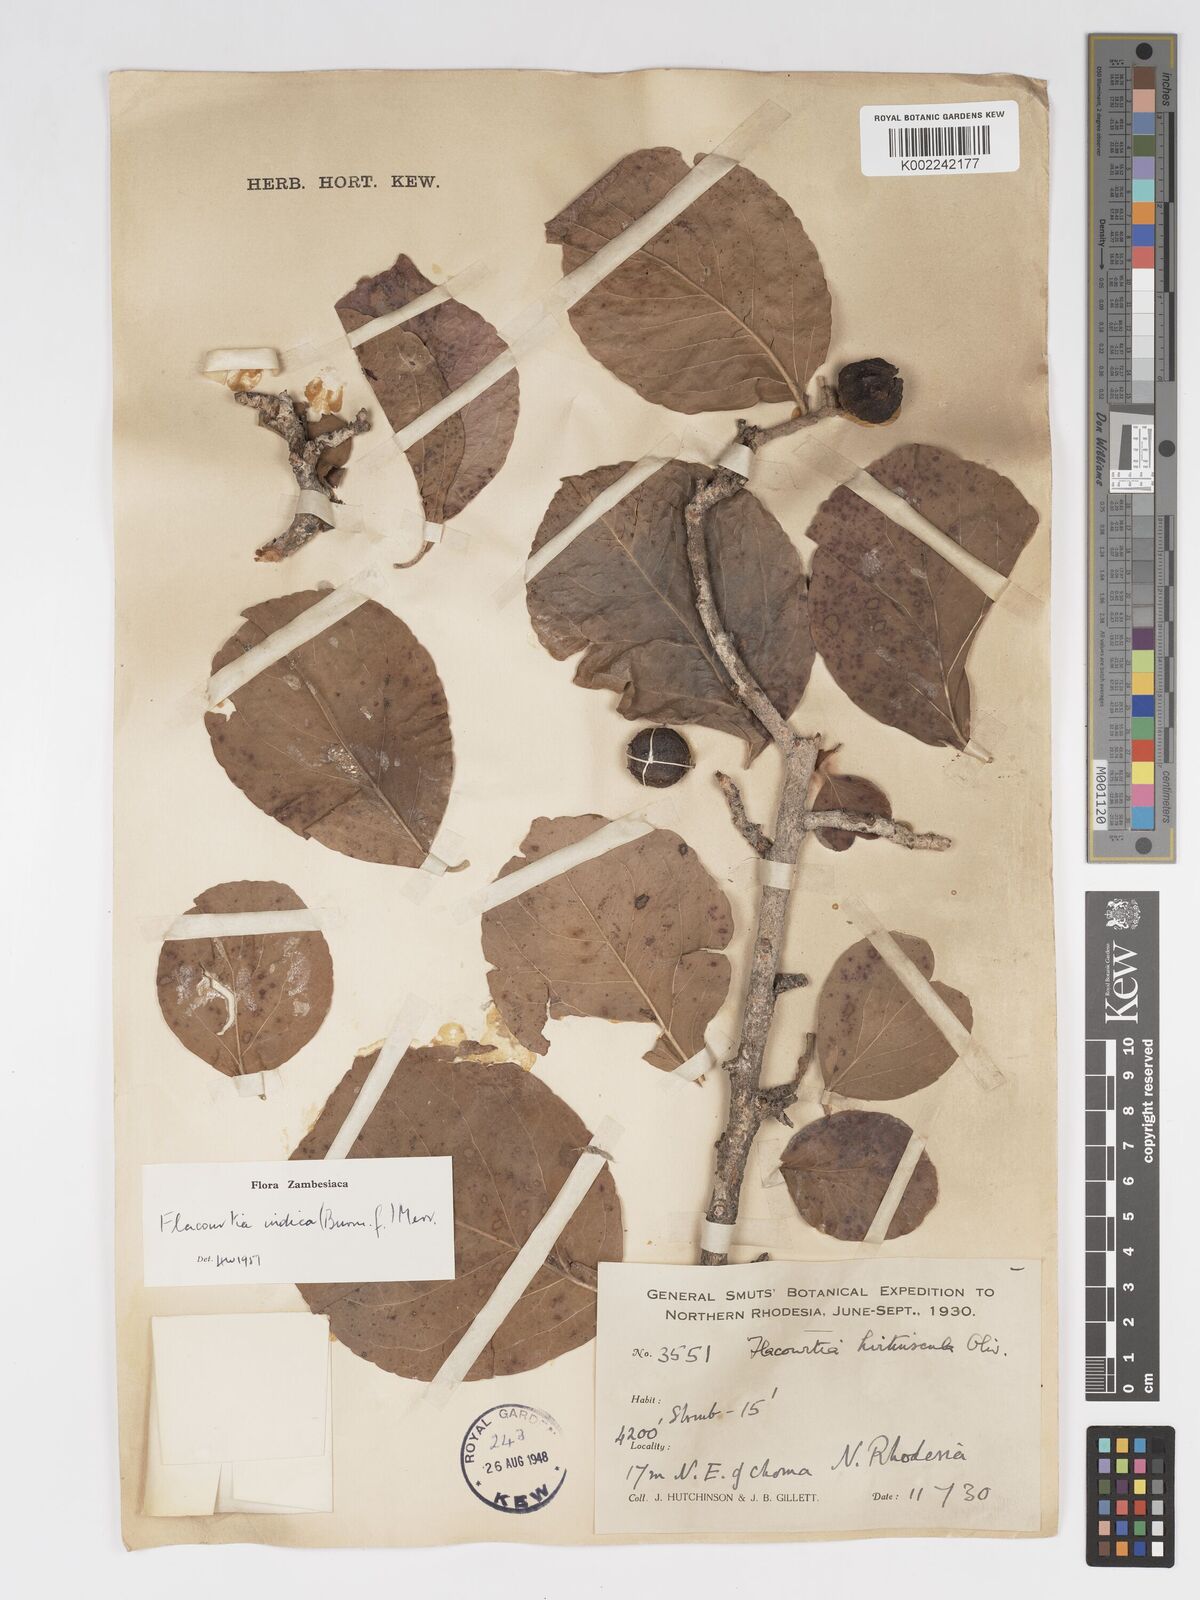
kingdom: Plantae
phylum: Tracheophyta
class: Magnoliopsida
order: Malpighiales
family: Salicaceae
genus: Flacourtia
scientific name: Flacourtia indica
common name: Governor's plum
